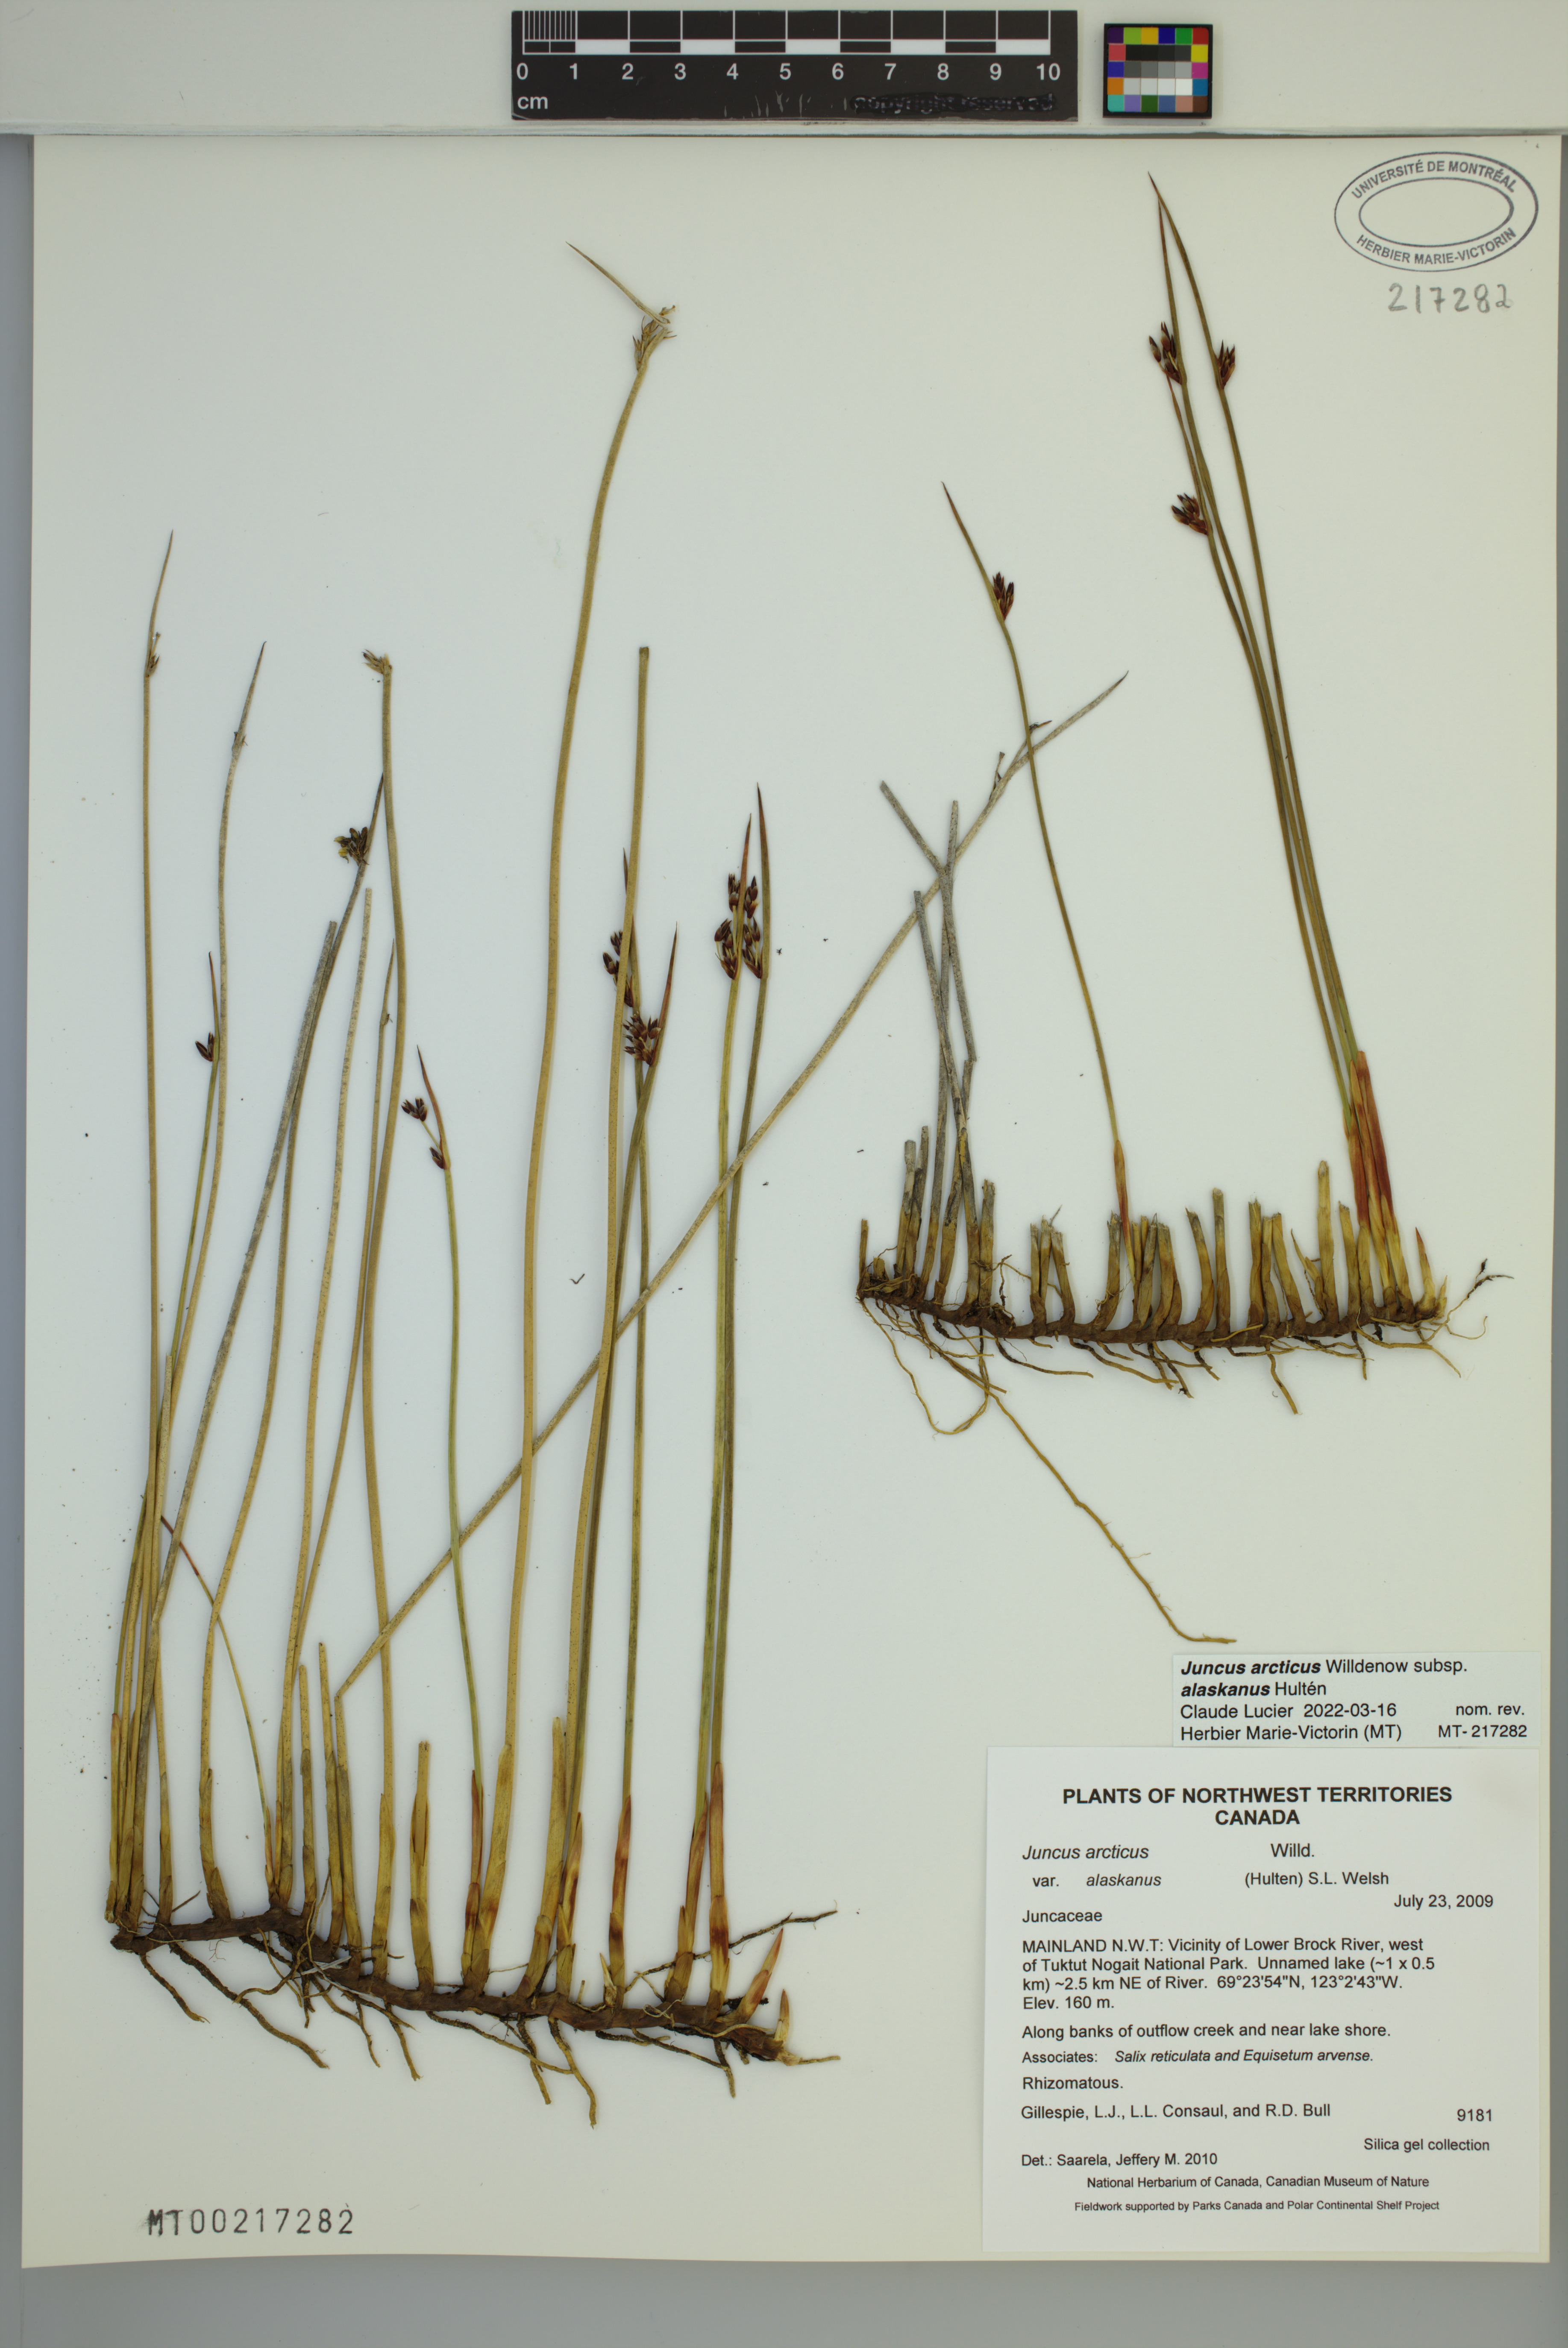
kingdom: Plantae
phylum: Tracheophyta
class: Liliopsida
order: Poales
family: Juncaceae
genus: Juncus
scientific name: Juncus arcticus
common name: Arctic rush
